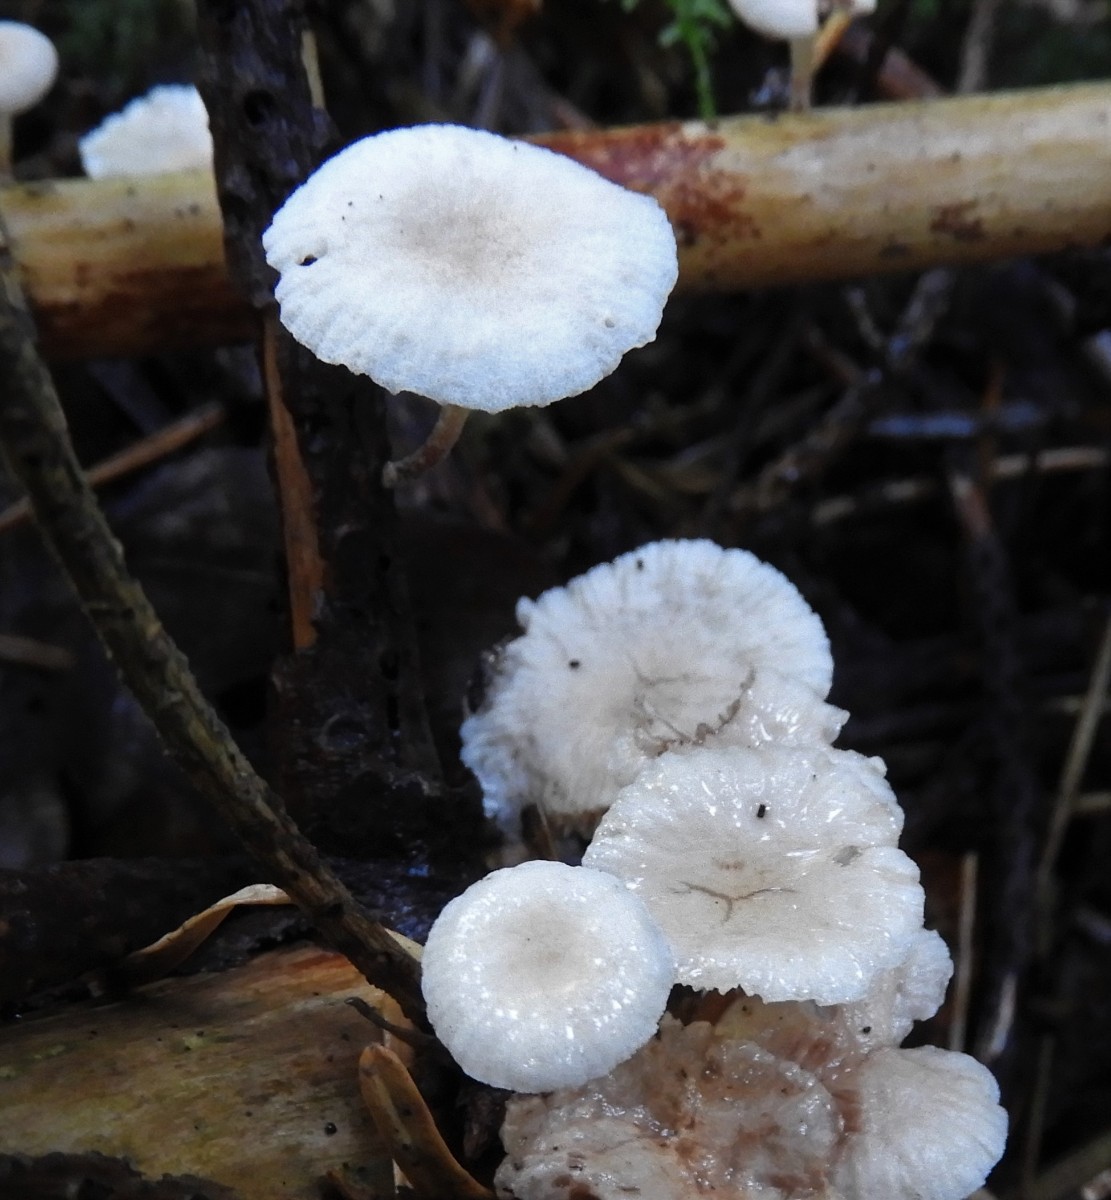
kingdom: Fungi
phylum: Basidiomycota
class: Agaricomycetes
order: Agaricales
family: Omphalotaceae
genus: Collybiopsis
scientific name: Collybiopsis ramealis
